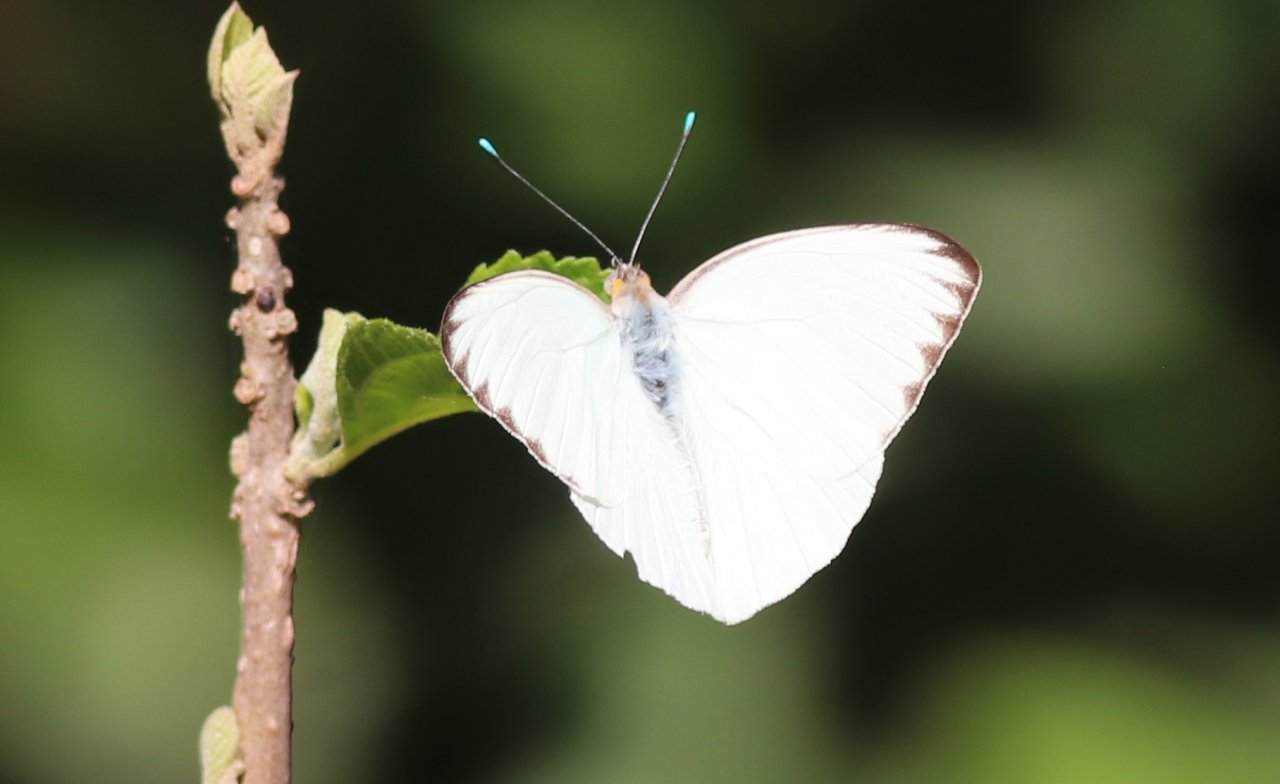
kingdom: Animalia
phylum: Arthropoda
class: Insecta
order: Lepidoptera
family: Pieridae
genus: Ascia
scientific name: Ascia monuste
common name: Great Southern White
